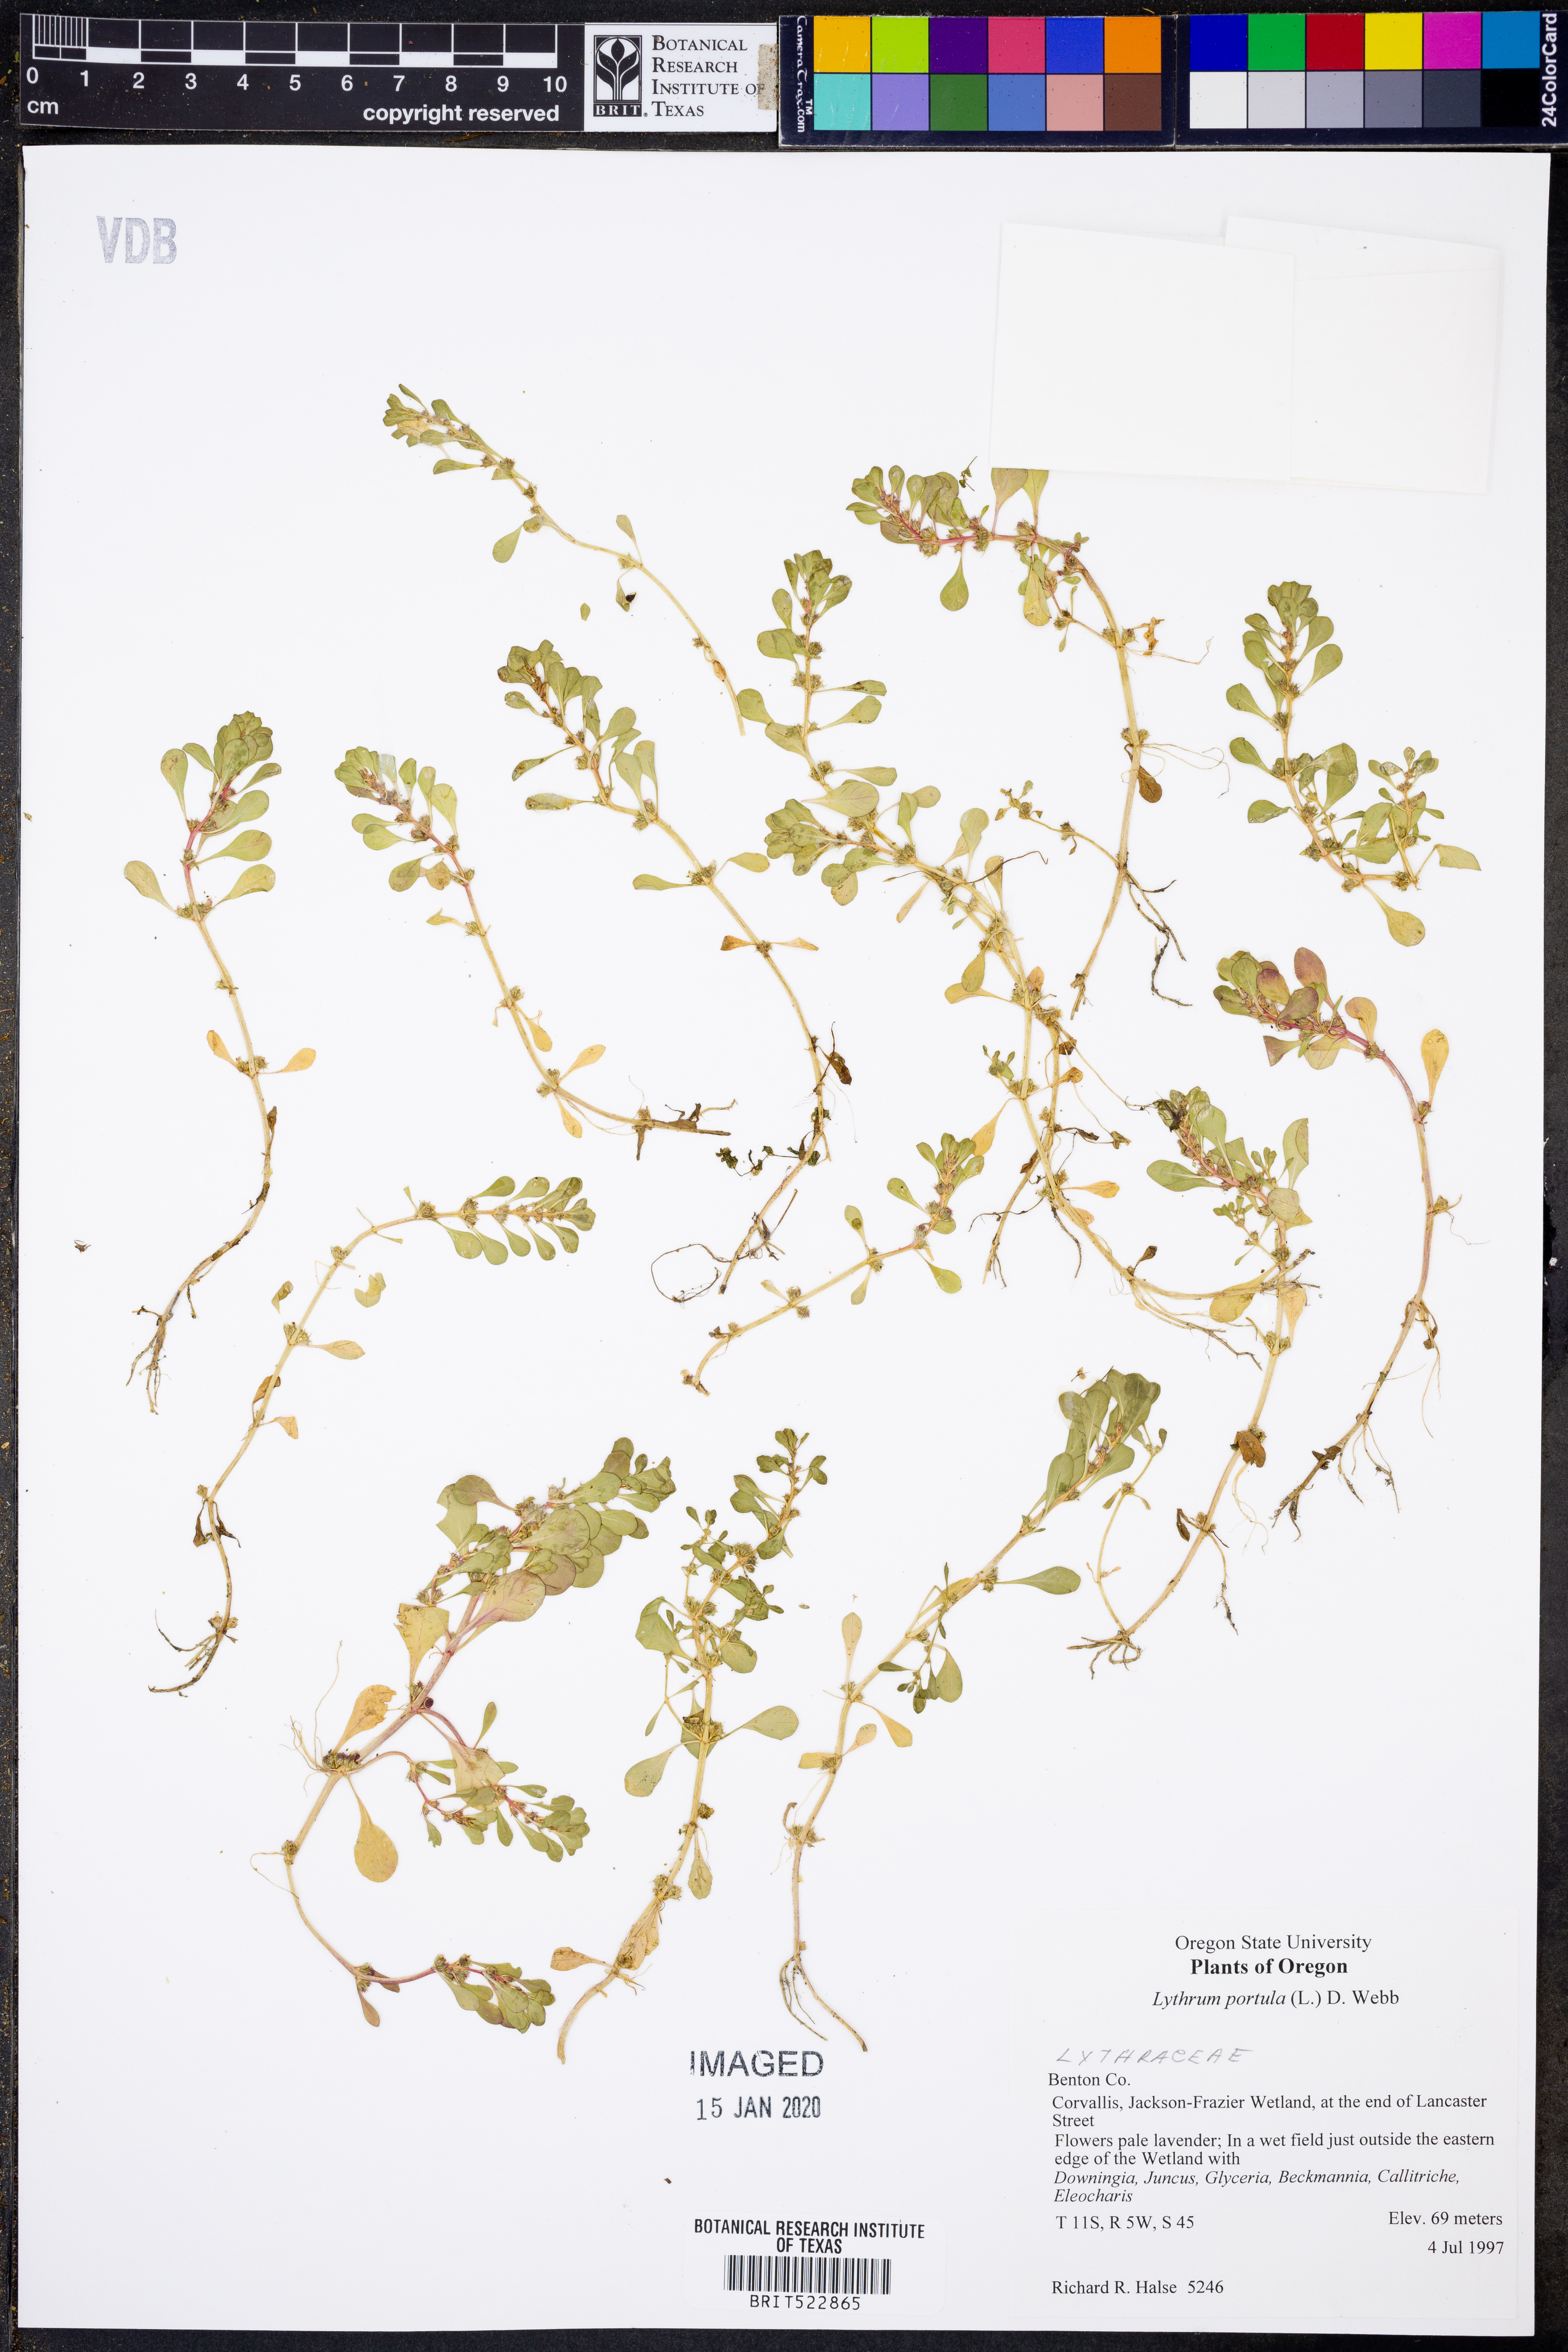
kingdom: Plantae
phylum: Tracheophyta
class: Magnoliopsida
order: Myrtales
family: Lythraceae
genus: Lythrum
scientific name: Lythrum portula
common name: Water purslane
